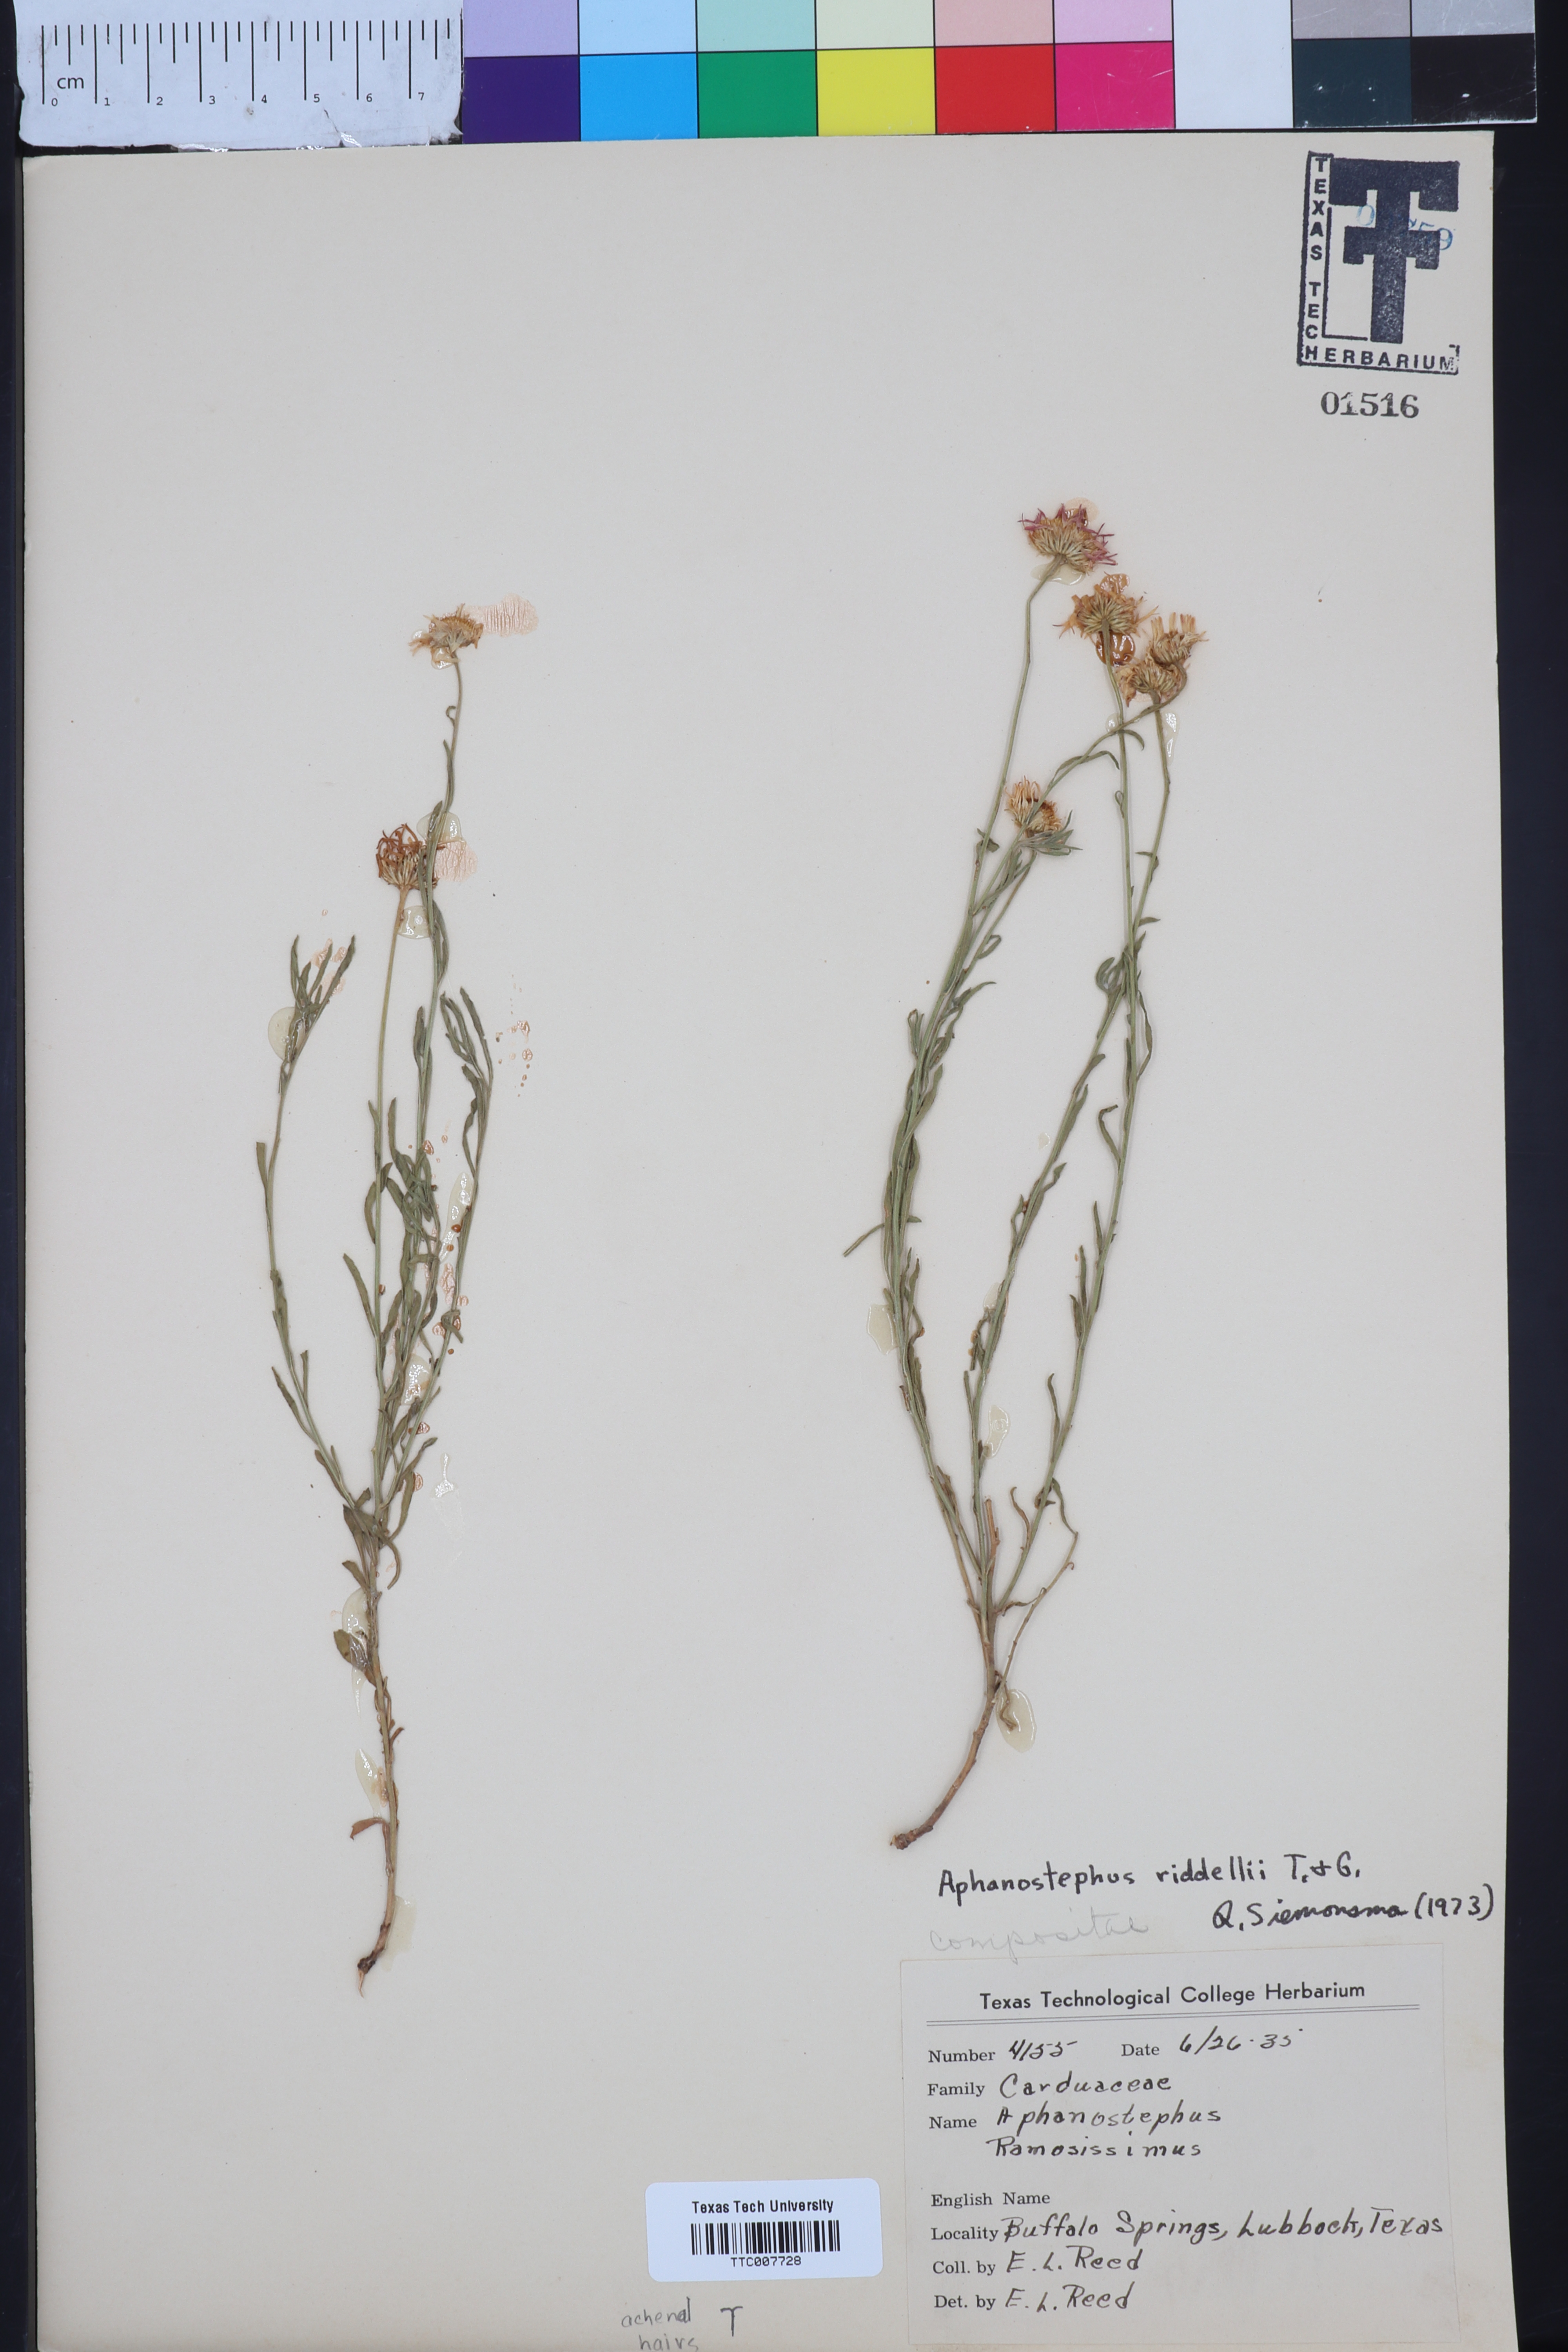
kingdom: Plantae
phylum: Tracheophyta
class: Magnoliopsida
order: Asterales
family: Asteraceae
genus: Aphanostephus
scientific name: Aphanostephus riddellii
